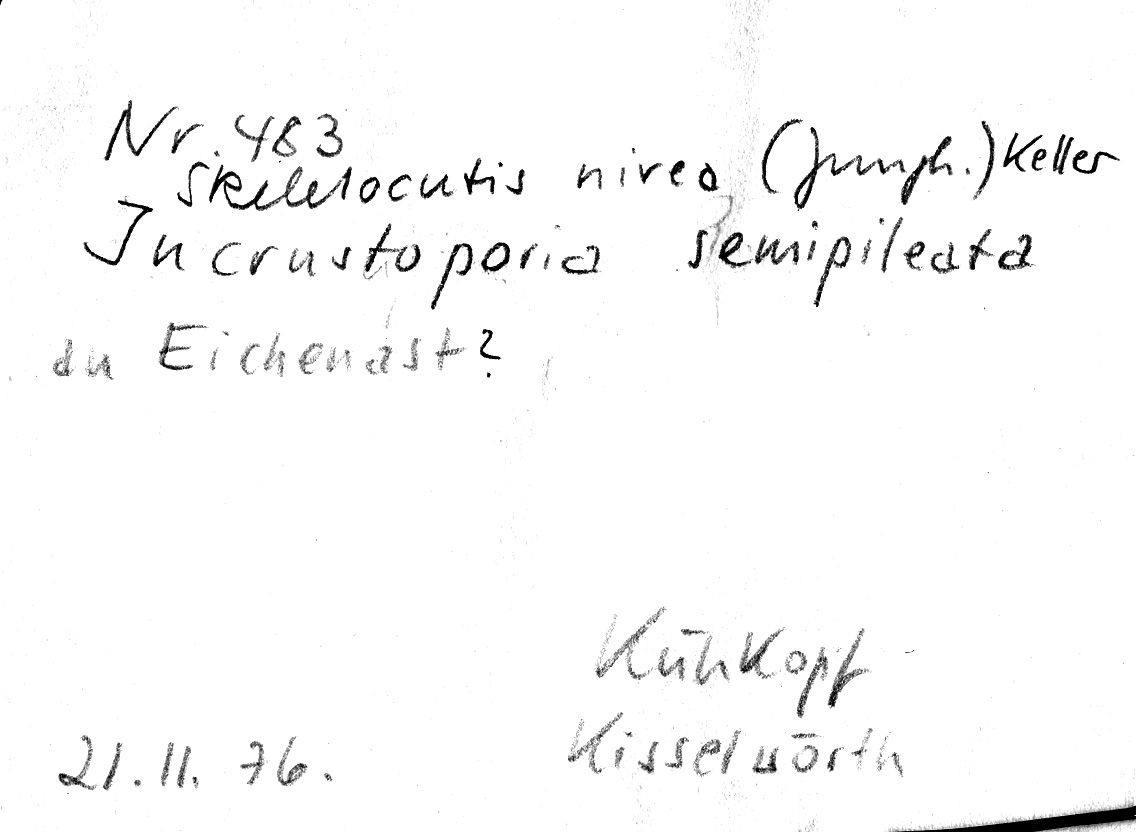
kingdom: Plantae
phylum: Tracheophyta
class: Magnoliopsida
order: Fagales
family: Fagaceae
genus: Quercus
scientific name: Quercus
